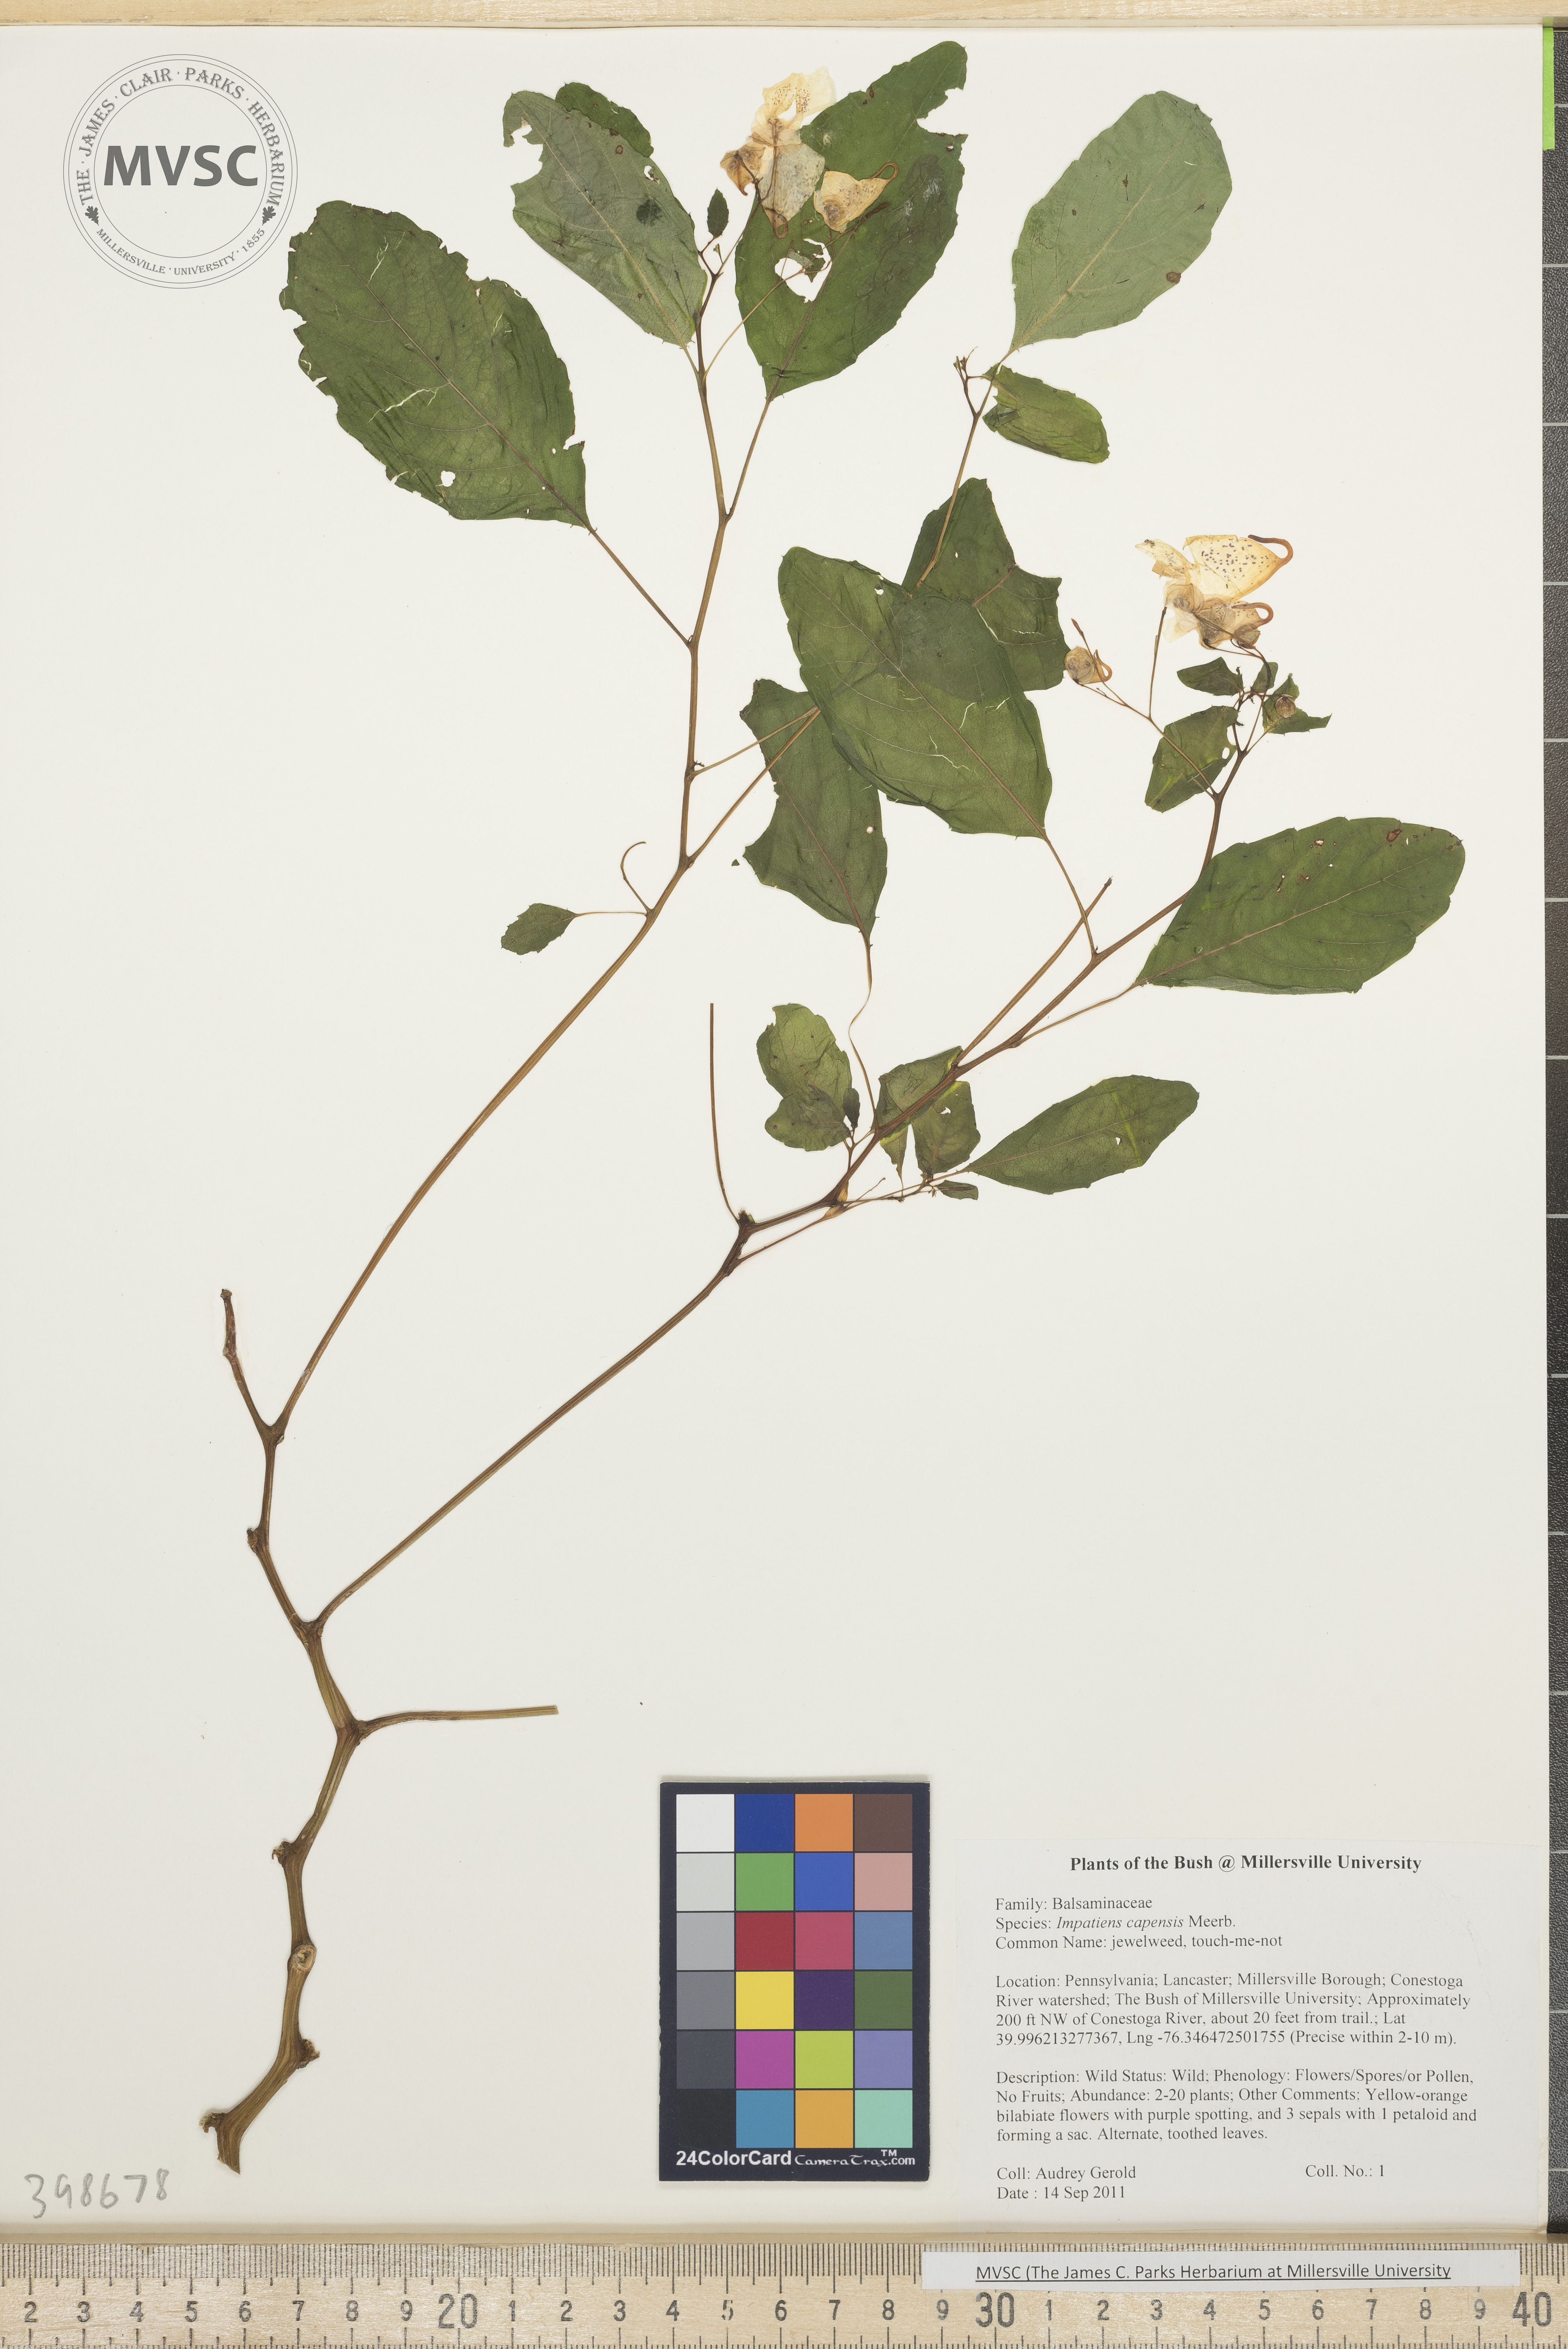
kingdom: Plantae
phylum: Tracheophyta
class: Magnoliopsida
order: Ericales
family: Balsaminaceae
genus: Impatiens
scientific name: Impatiens capensis
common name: Jewelweed
